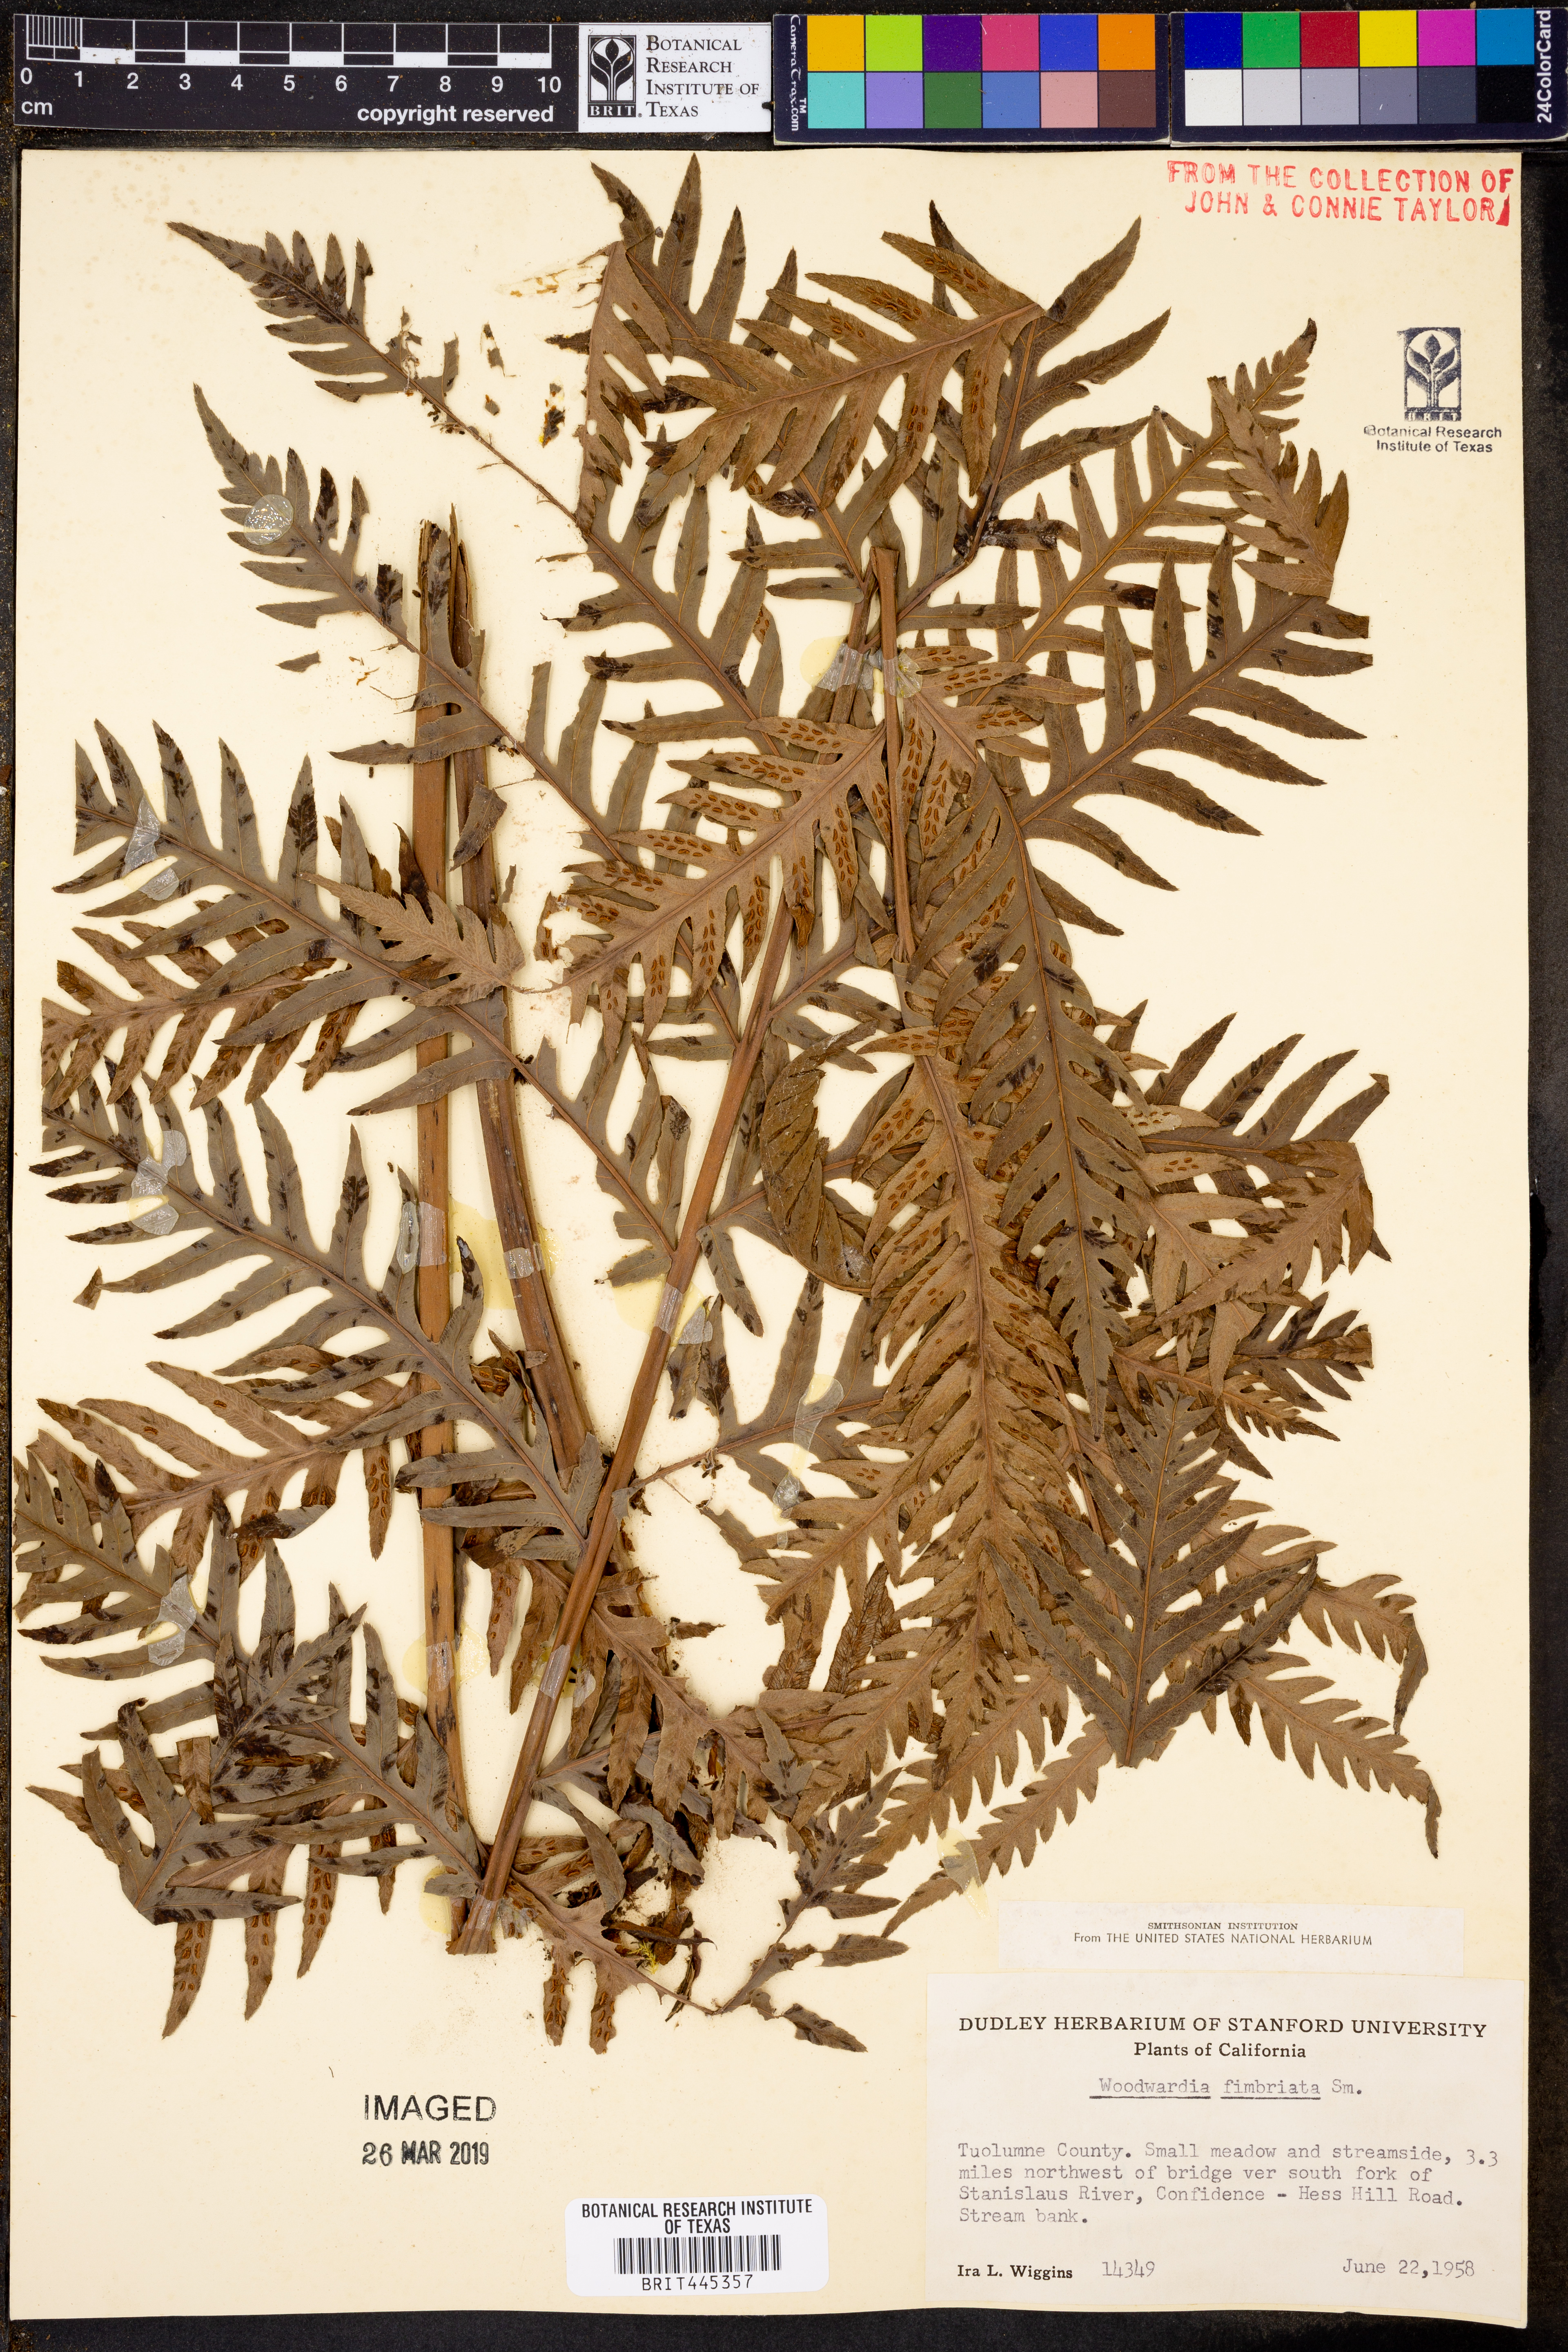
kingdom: Plantae
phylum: Tracheophyta
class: Polypodiopsida
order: Polypodiales
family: Blechnaceae
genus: Woodwardia
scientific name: Woodwardia fimbriata
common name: Giant chain fern
